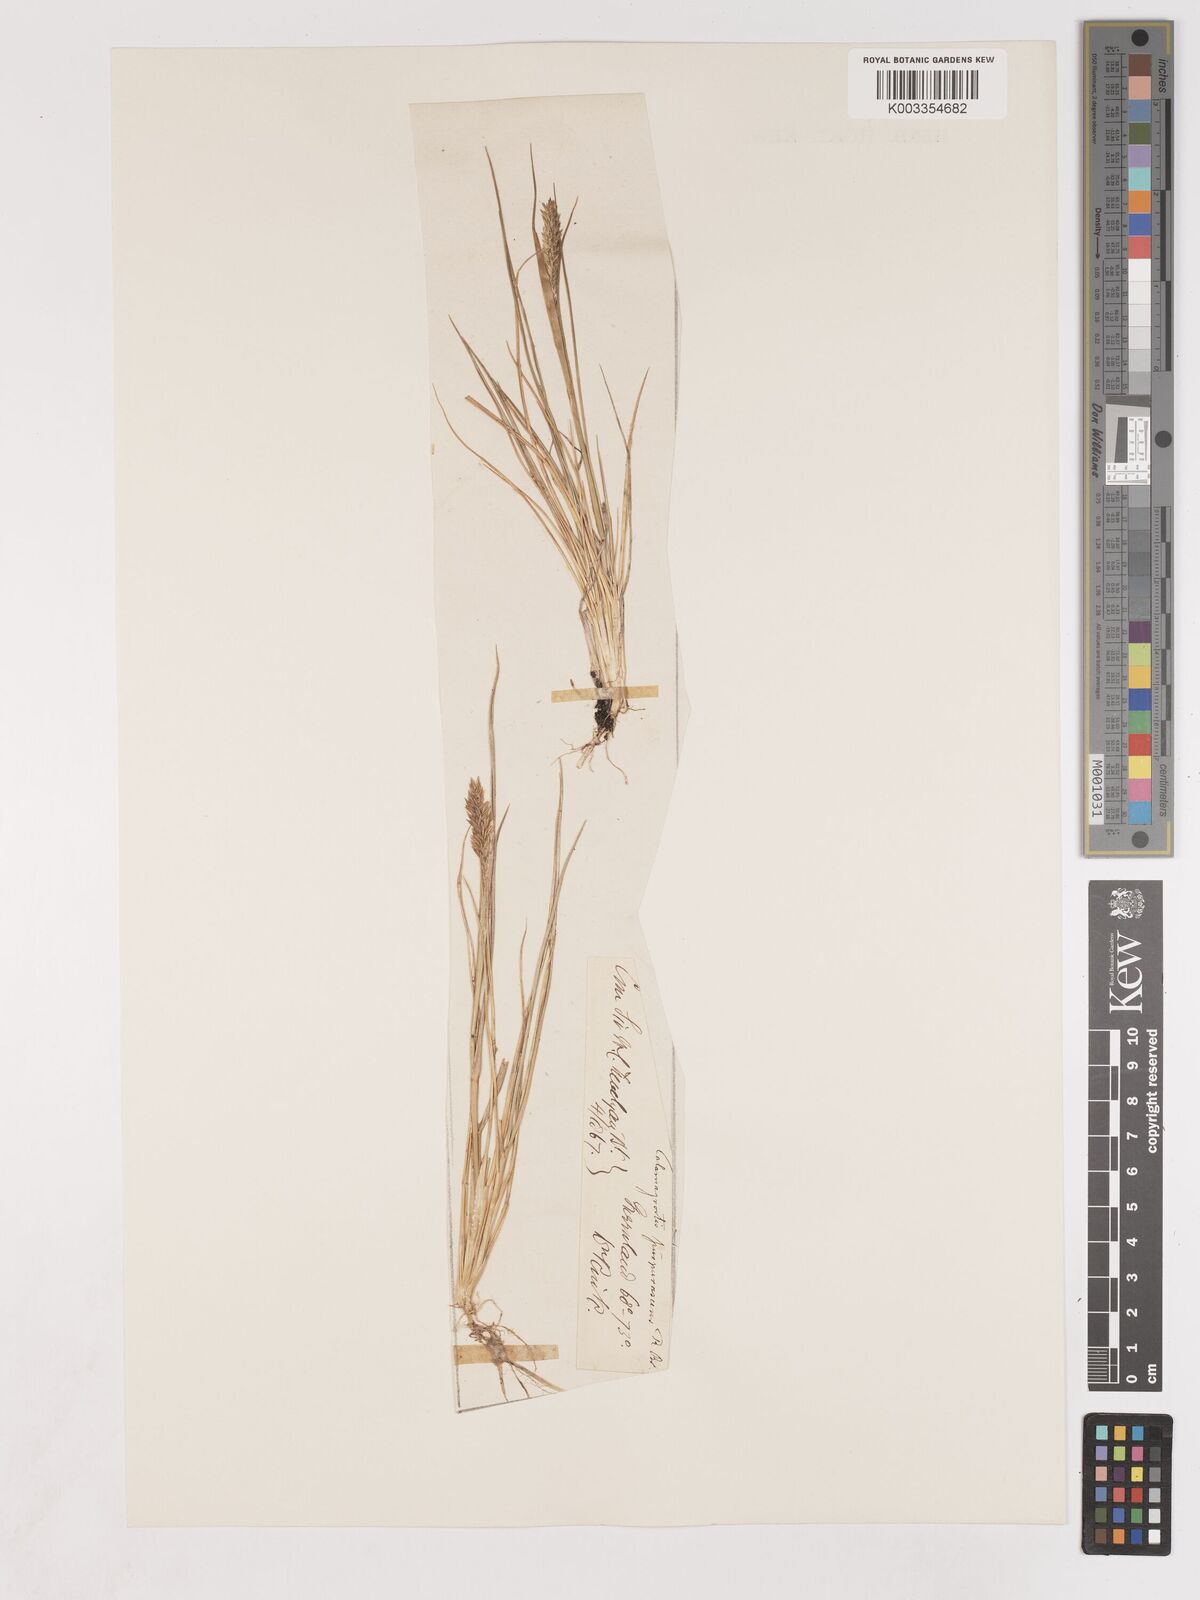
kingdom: Plantae
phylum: Tracheophyta
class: Liliopsida
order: Poales
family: Poaceae
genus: Cinnagrostis
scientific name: Cinnagrostis recta
